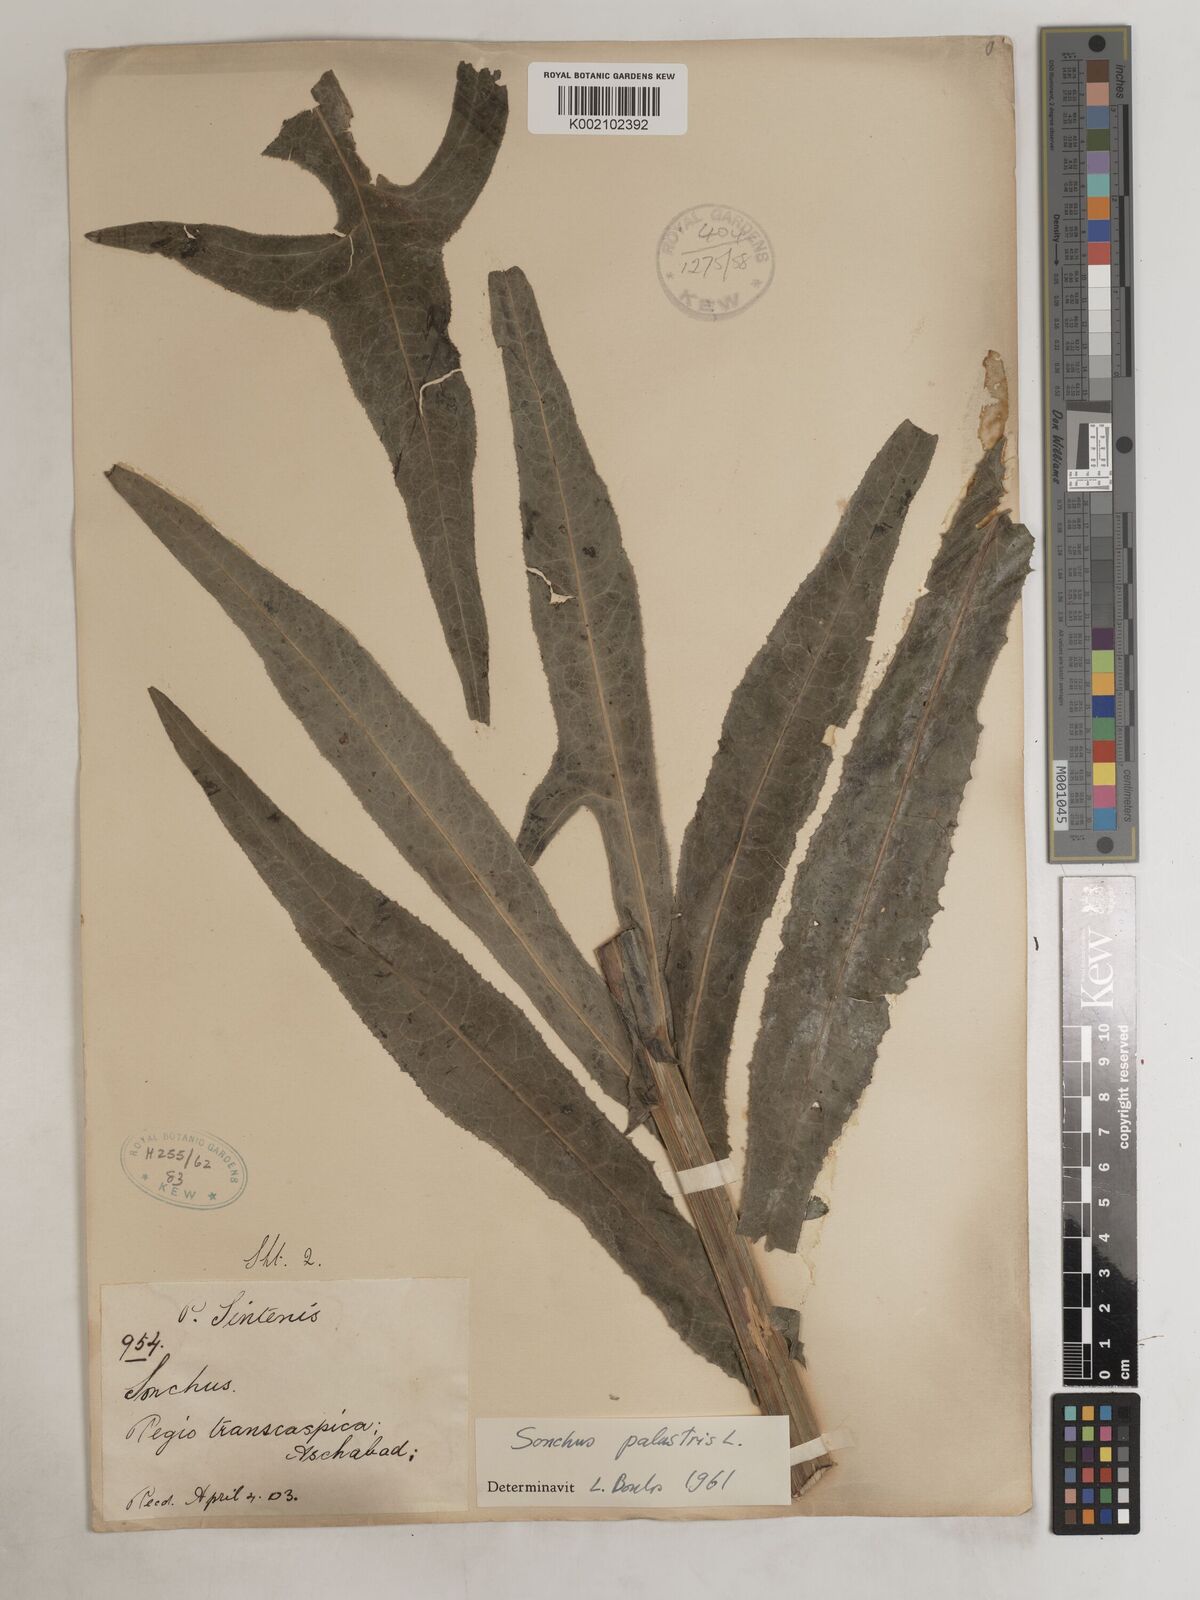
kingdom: Plantae
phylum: Tracheophyta
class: Magnoliopsida
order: Asterales
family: Asteraceae
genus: Sonchus
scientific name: Sonchus palustris
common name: Marsh sow-thistle
